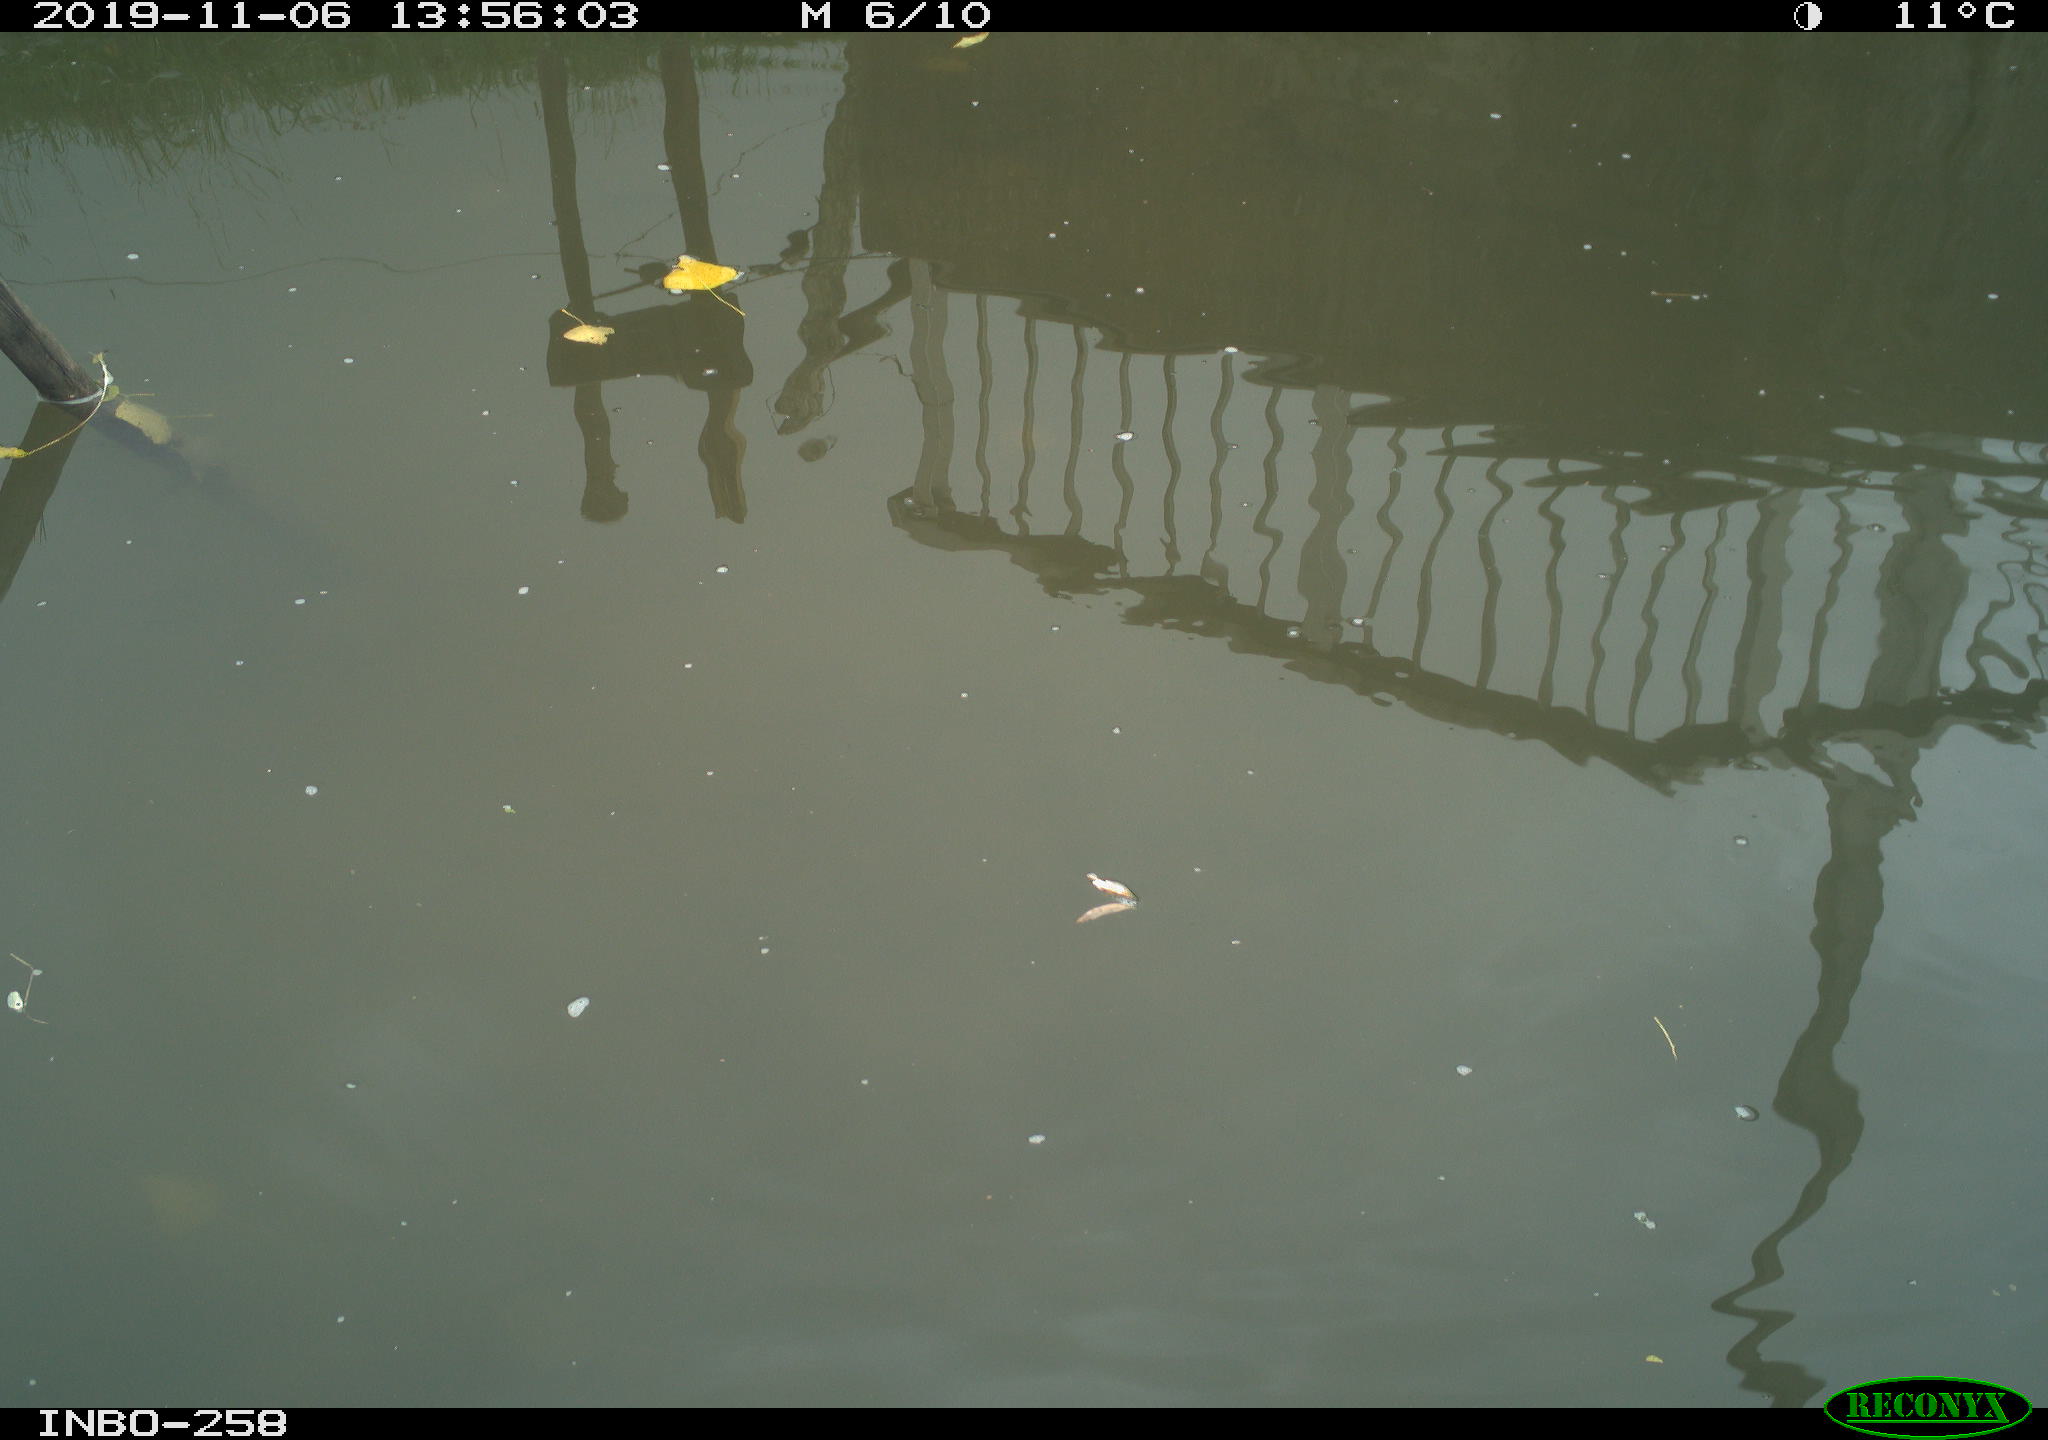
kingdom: Animalia
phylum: Chordata
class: Aves
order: Gruiformes
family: Rallidae
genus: Gallinula
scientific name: Gallinula chloropus
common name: Common moorhen
